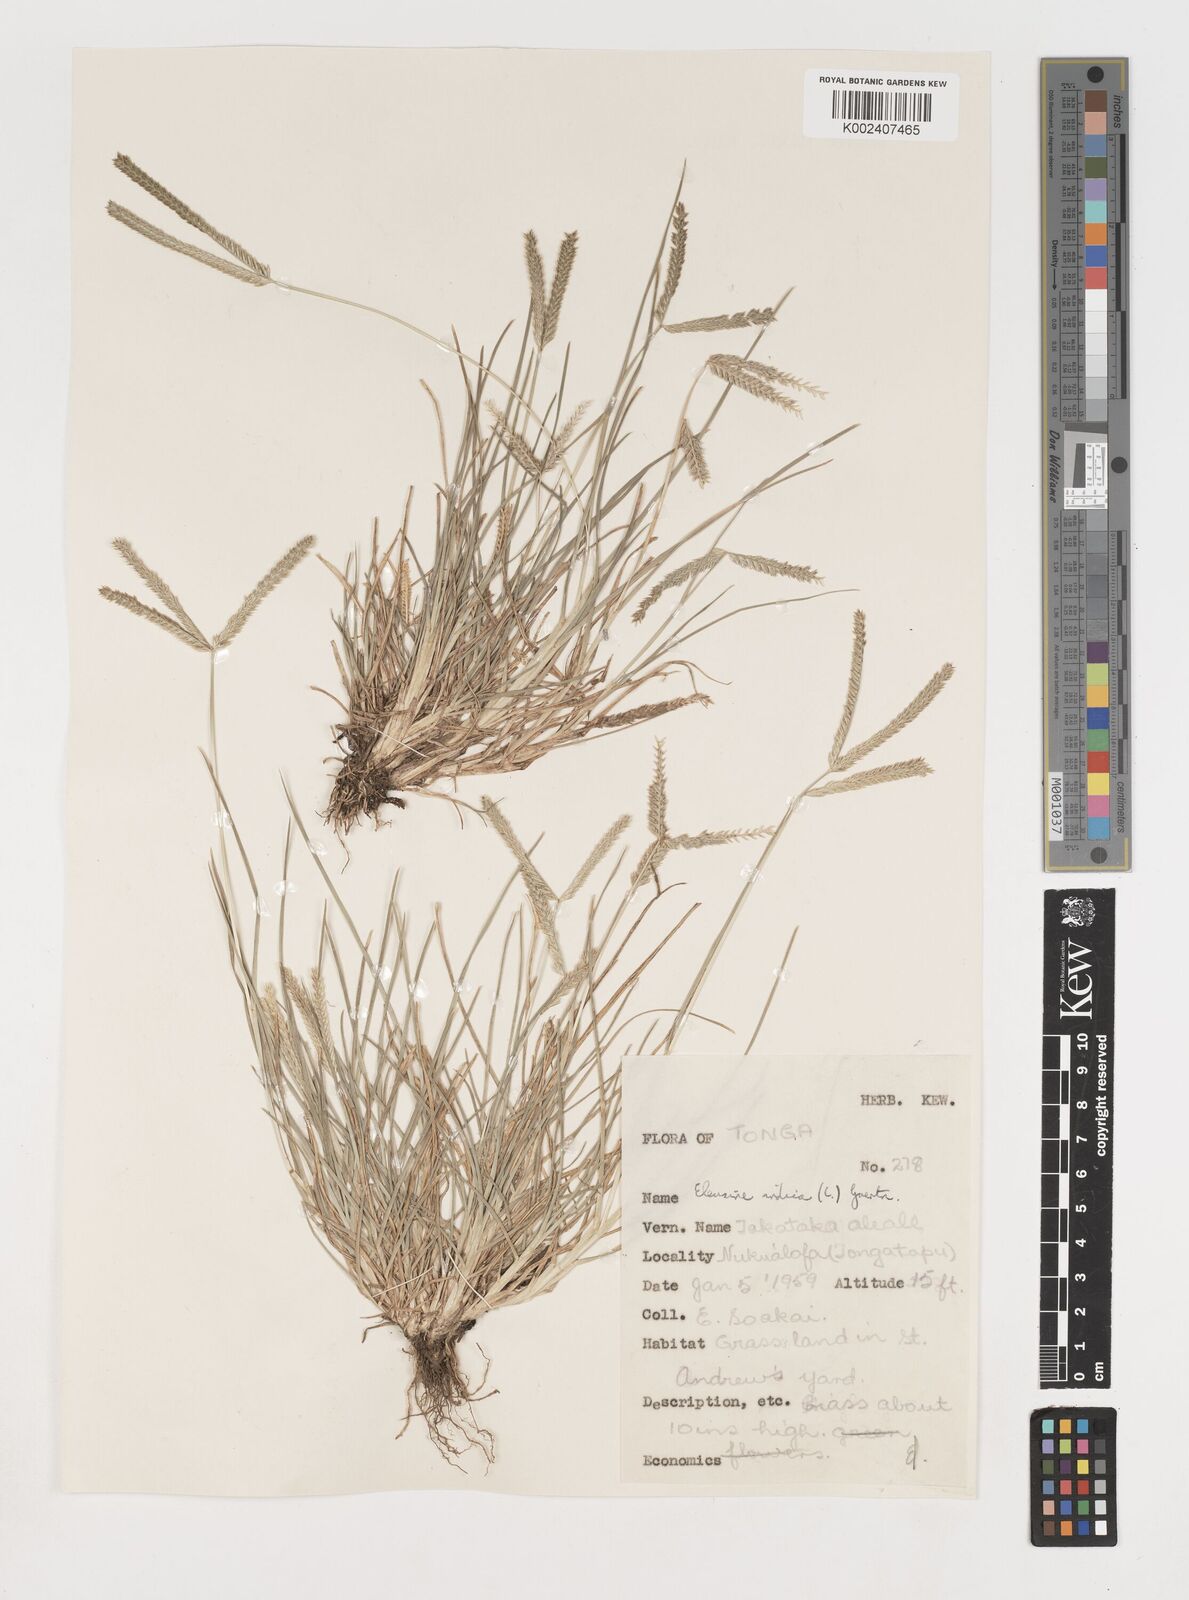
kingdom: Plantae
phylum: Tracheophyta
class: Liliopsida
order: Poales
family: Poaceae
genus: Eleusine
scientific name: Eleusine indica
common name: Yard-grass
